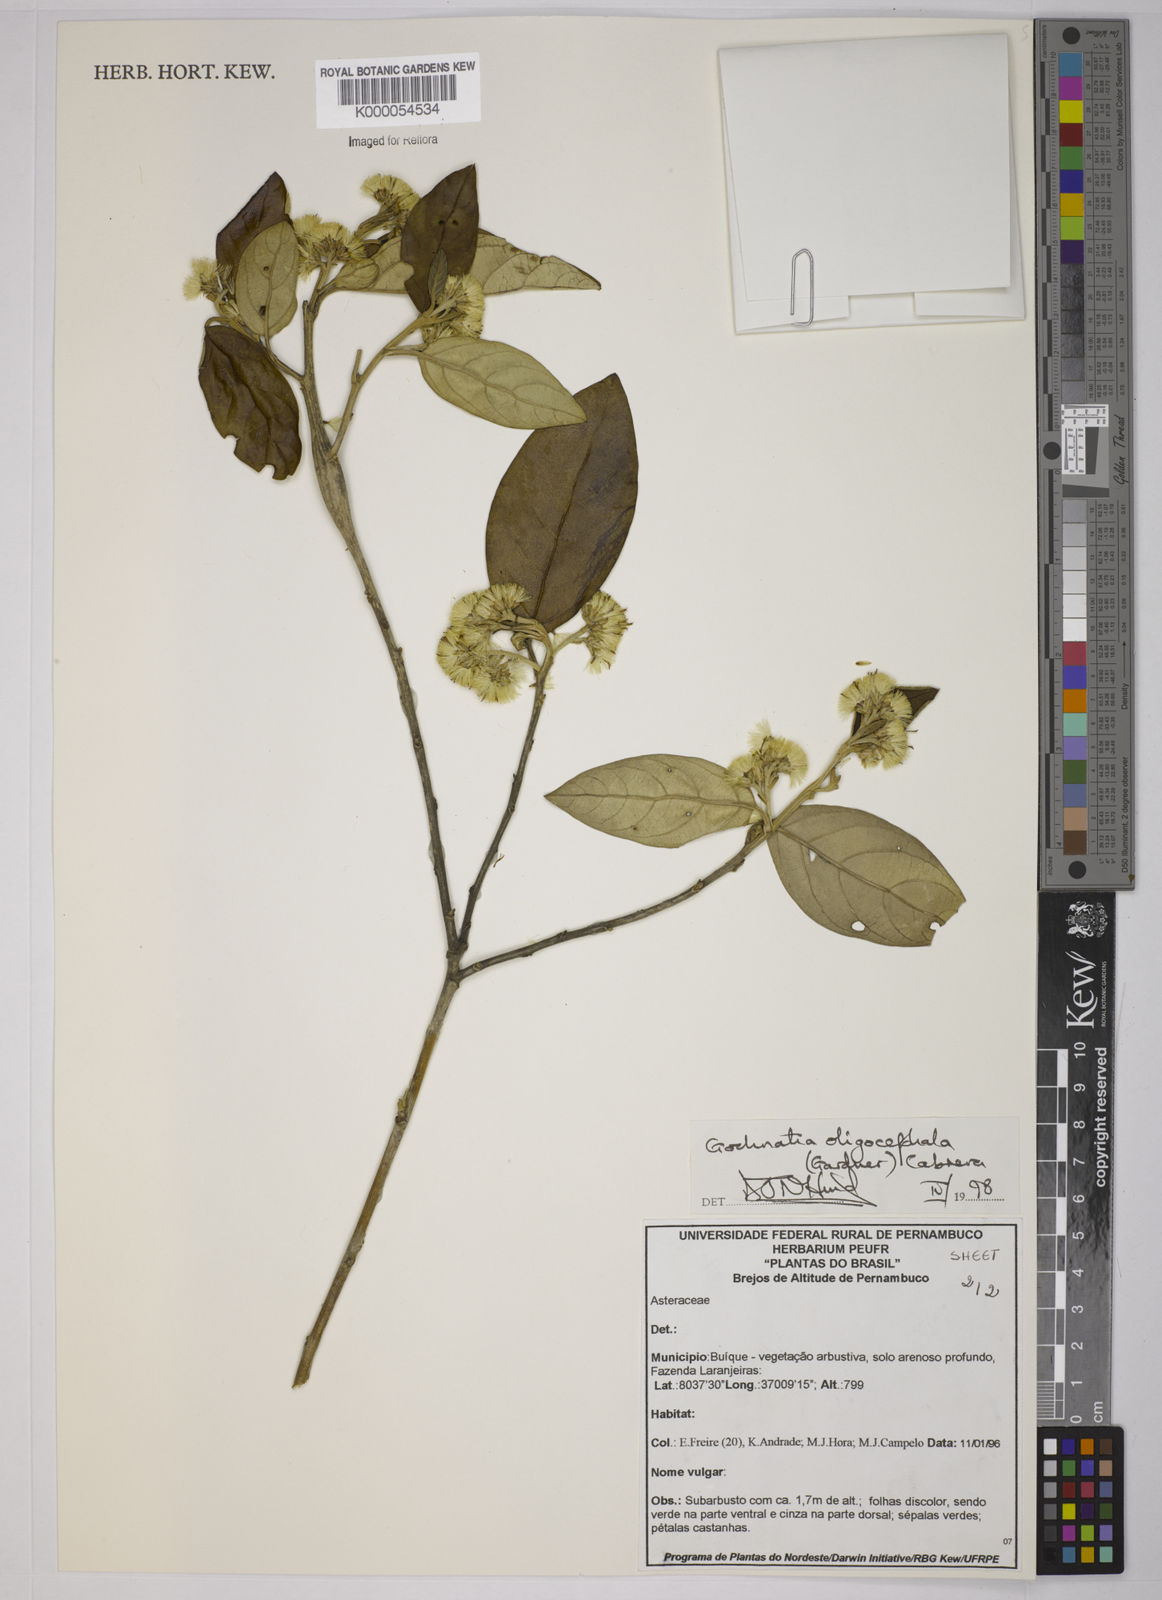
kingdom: Plantae
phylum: Tracheophyta
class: Magnoliopsida
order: Asterales
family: Asteraceae
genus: Moquiniastrum
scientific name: Moquiniastrum oligocephalum
